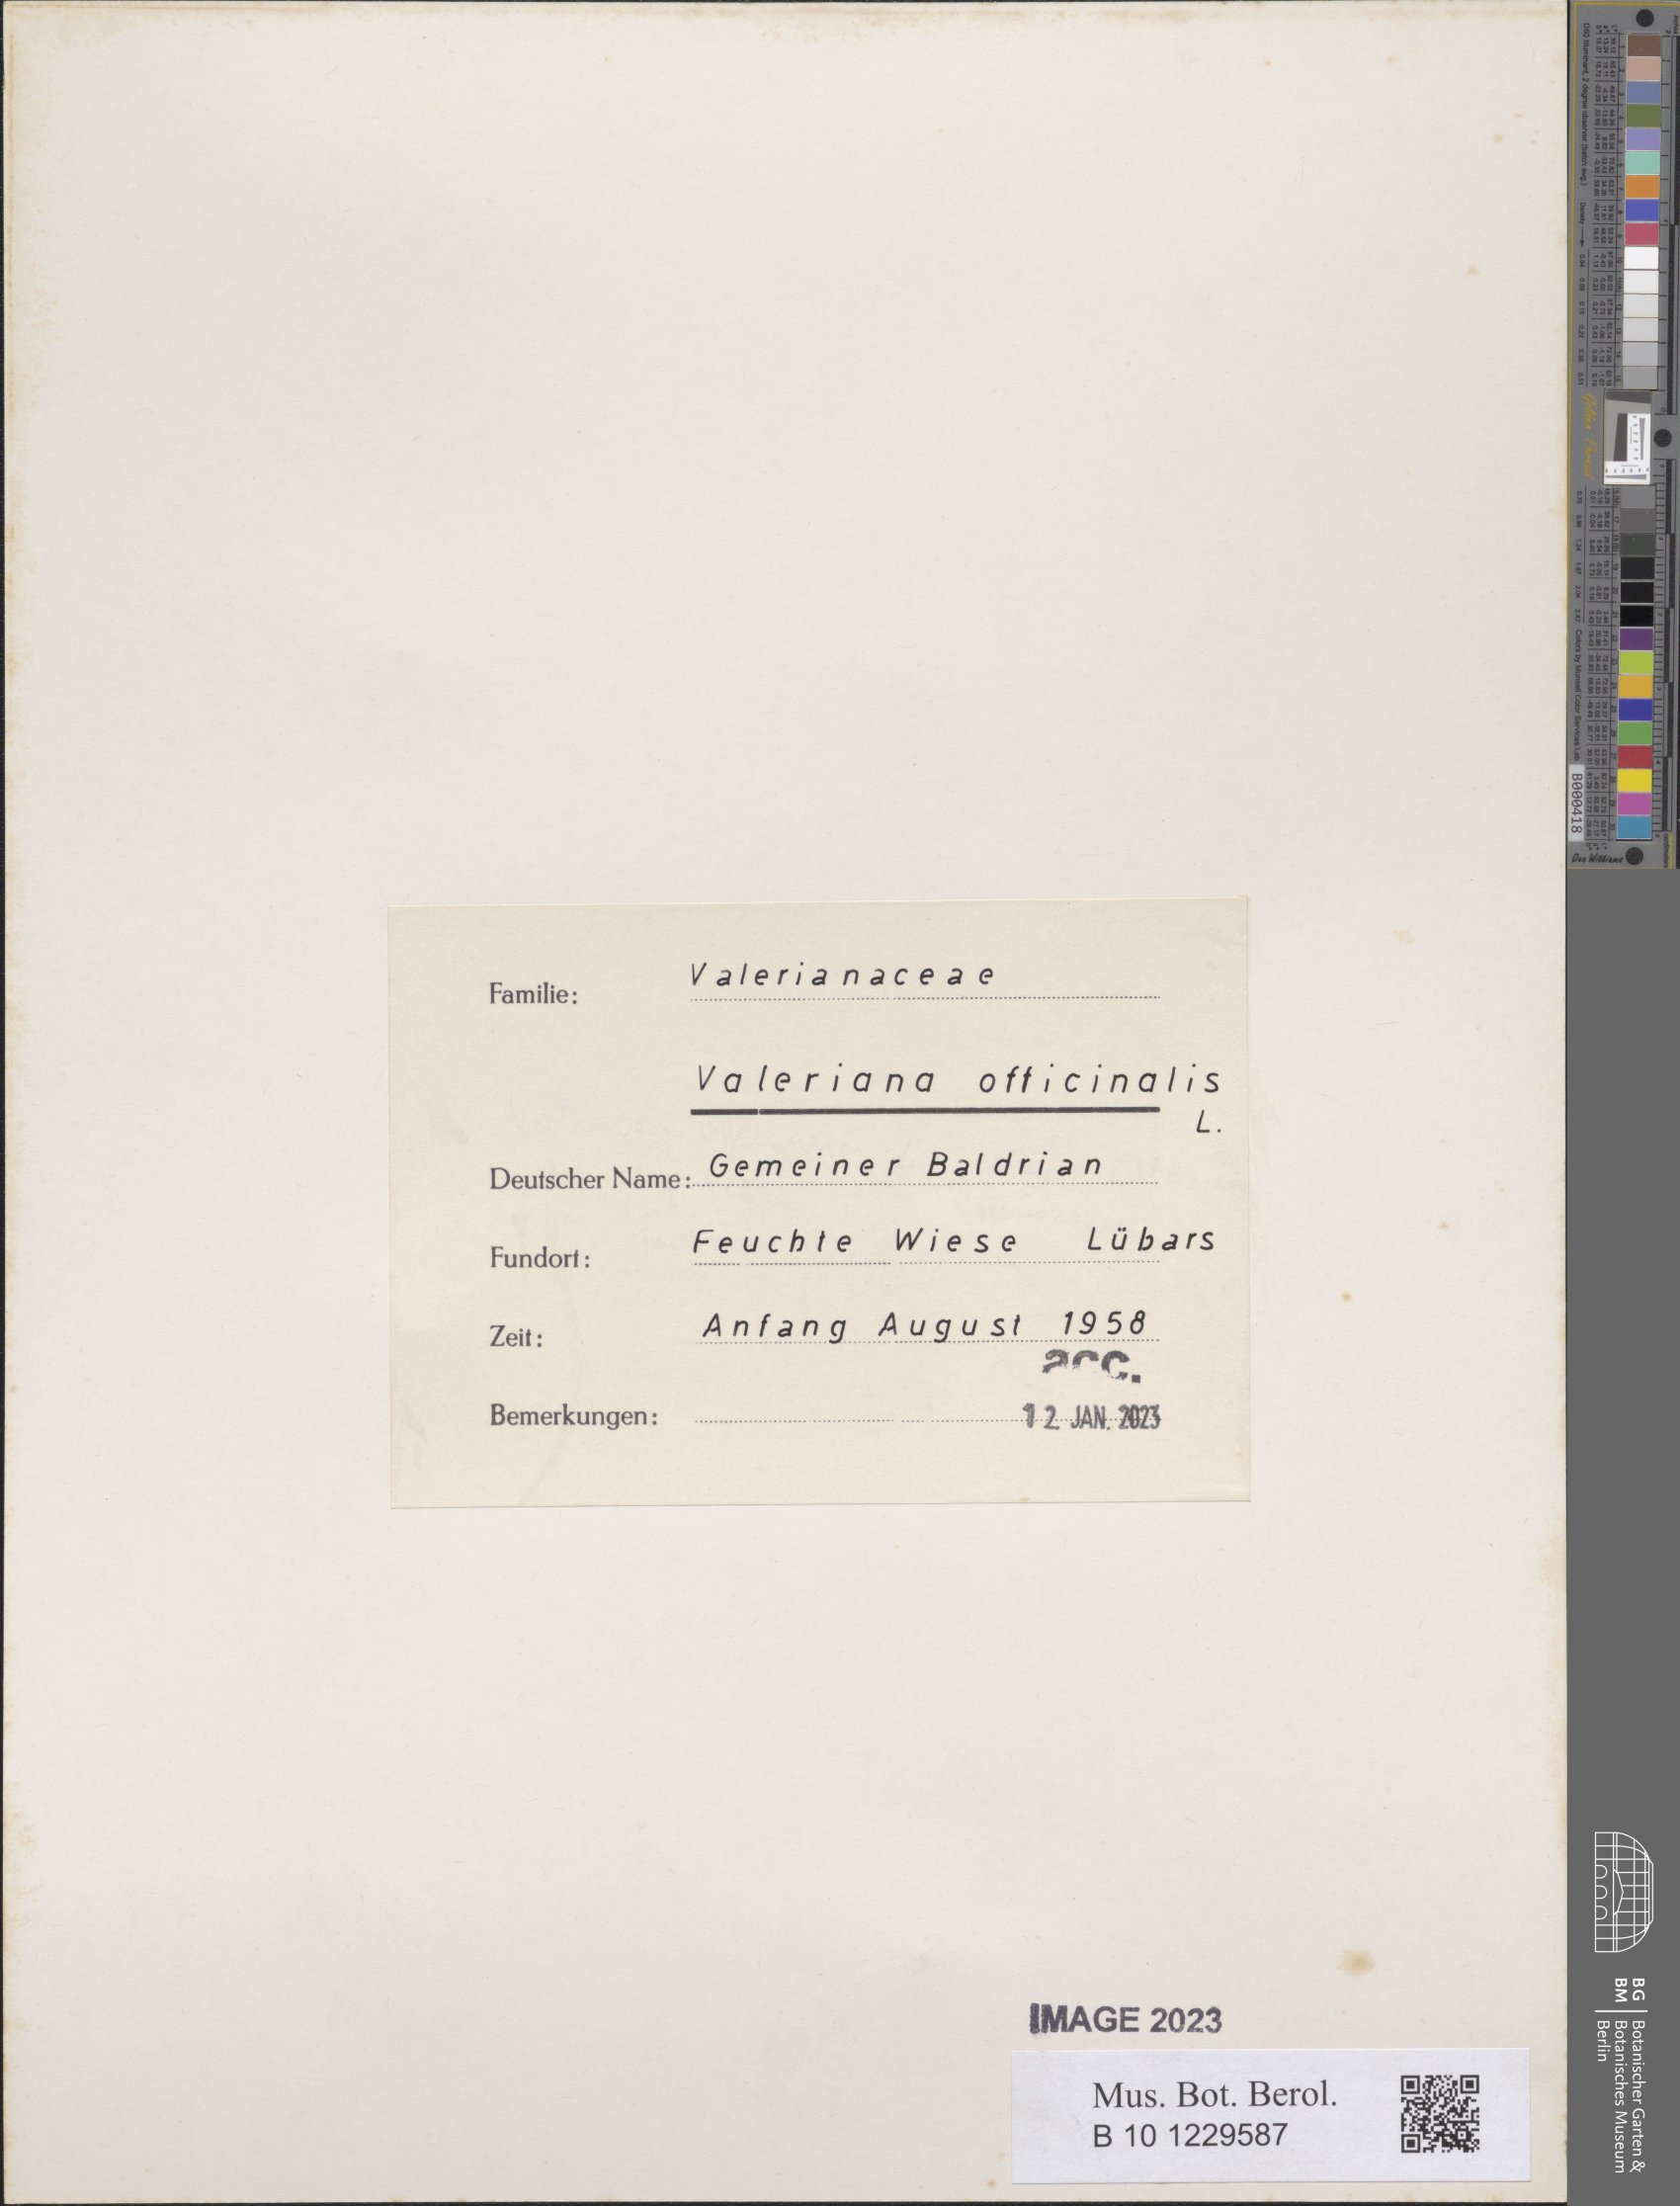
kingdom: Plantae
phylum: Tracheophyta
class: Magnoliopsida
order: Dipsacales
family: Caprifoliaceae
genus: Valeriana
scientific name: Valeriana officinalis
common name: Common valerian
